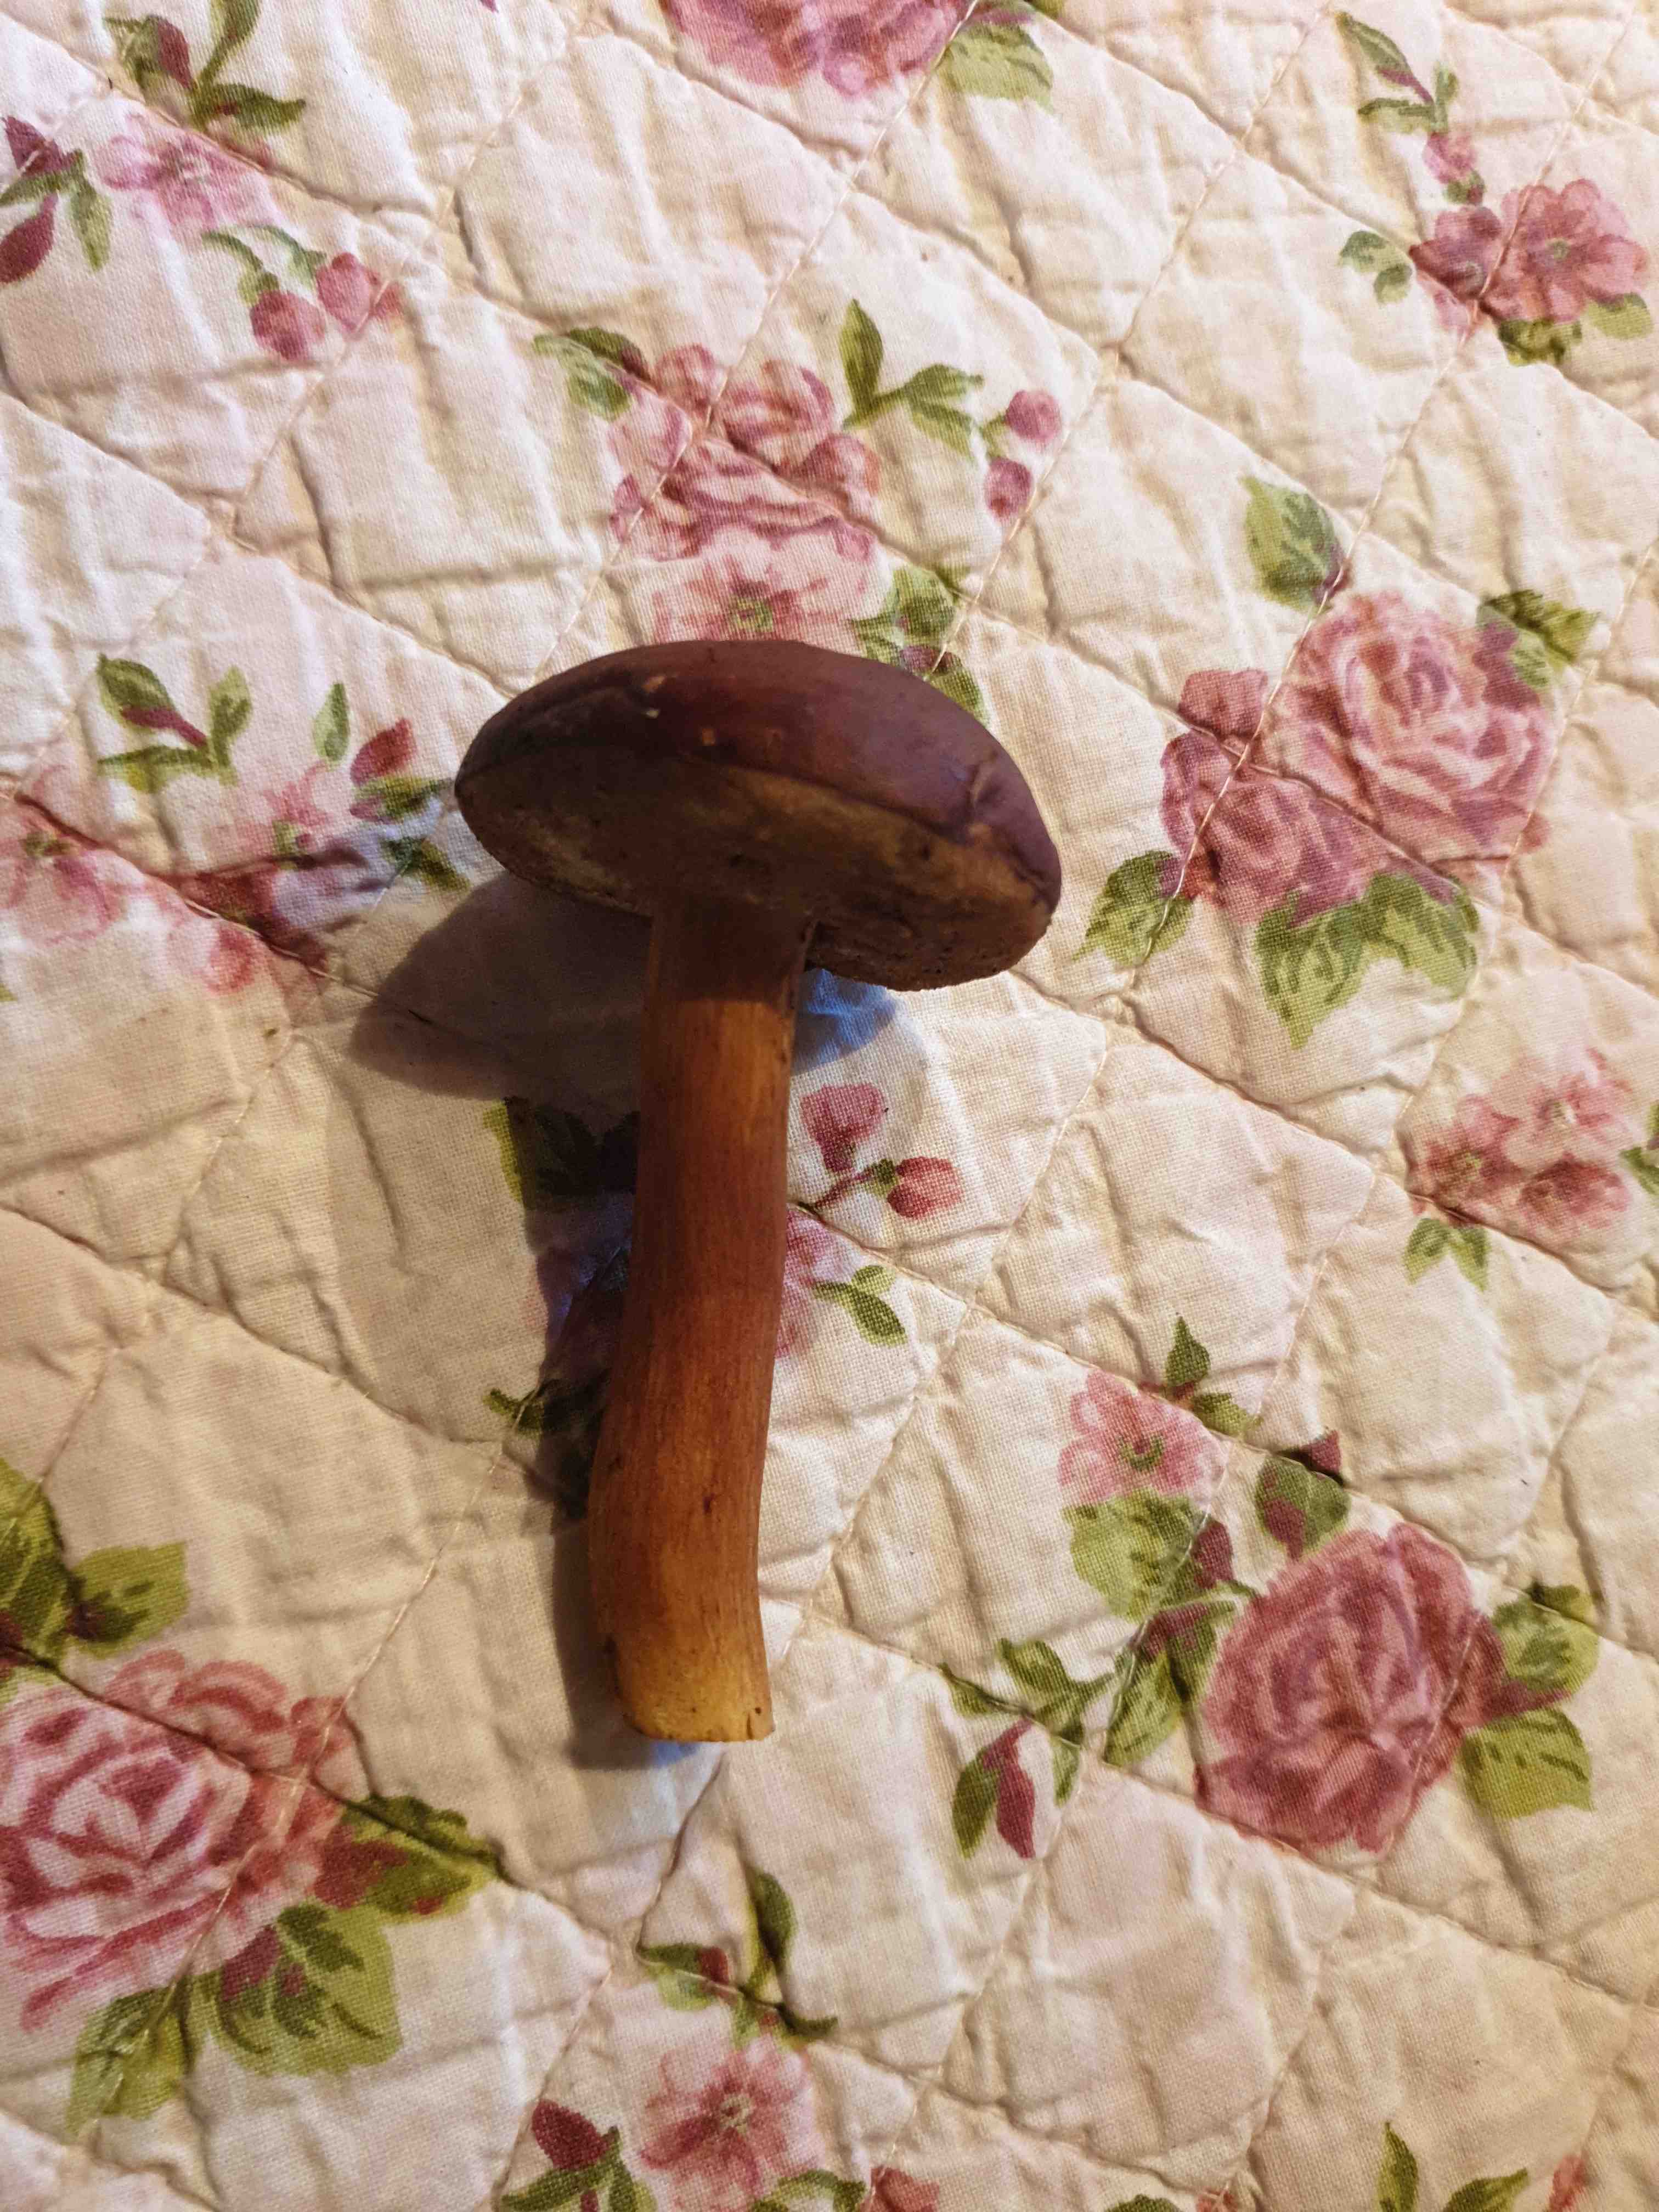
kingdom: Fungi
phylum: Basidiomycota
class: Agaricomycetes
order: Boletales
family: Boletaceae
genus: Imleria
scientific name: Imleria badia
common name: brunstokket rørhat
